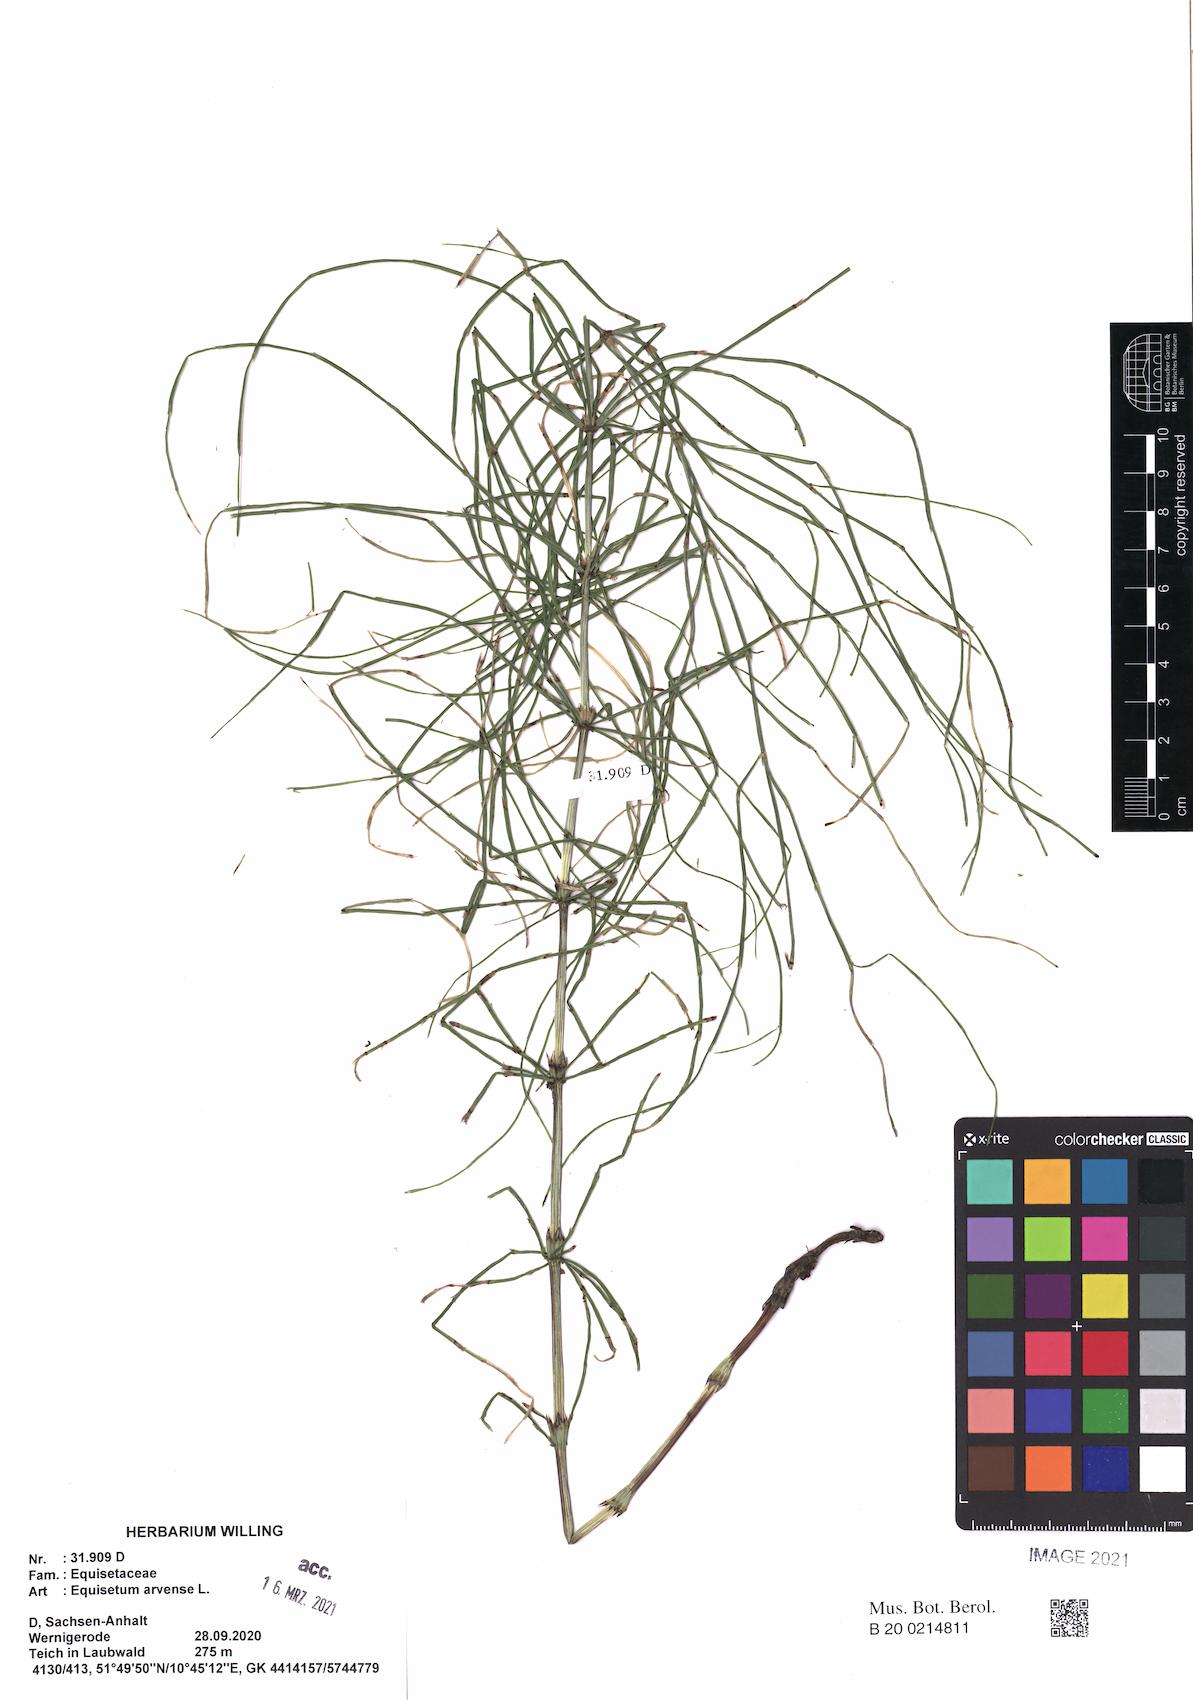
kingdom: Plantae
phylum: Tracheophyta
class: Polypodiopsida
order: Equisetales
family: Equisetaceae
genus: Equisetum
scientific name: Equisetum arvense
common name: Field horsetail
